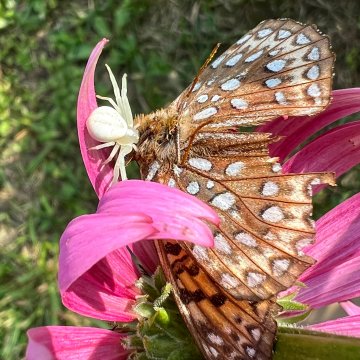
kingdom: Animalia
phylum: Arthropoda
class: Insecta
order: Lepidoptera
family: Nymphalidae
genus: Speyeria
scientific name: Speyeria atlantis
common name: Atlantis Fritillary
